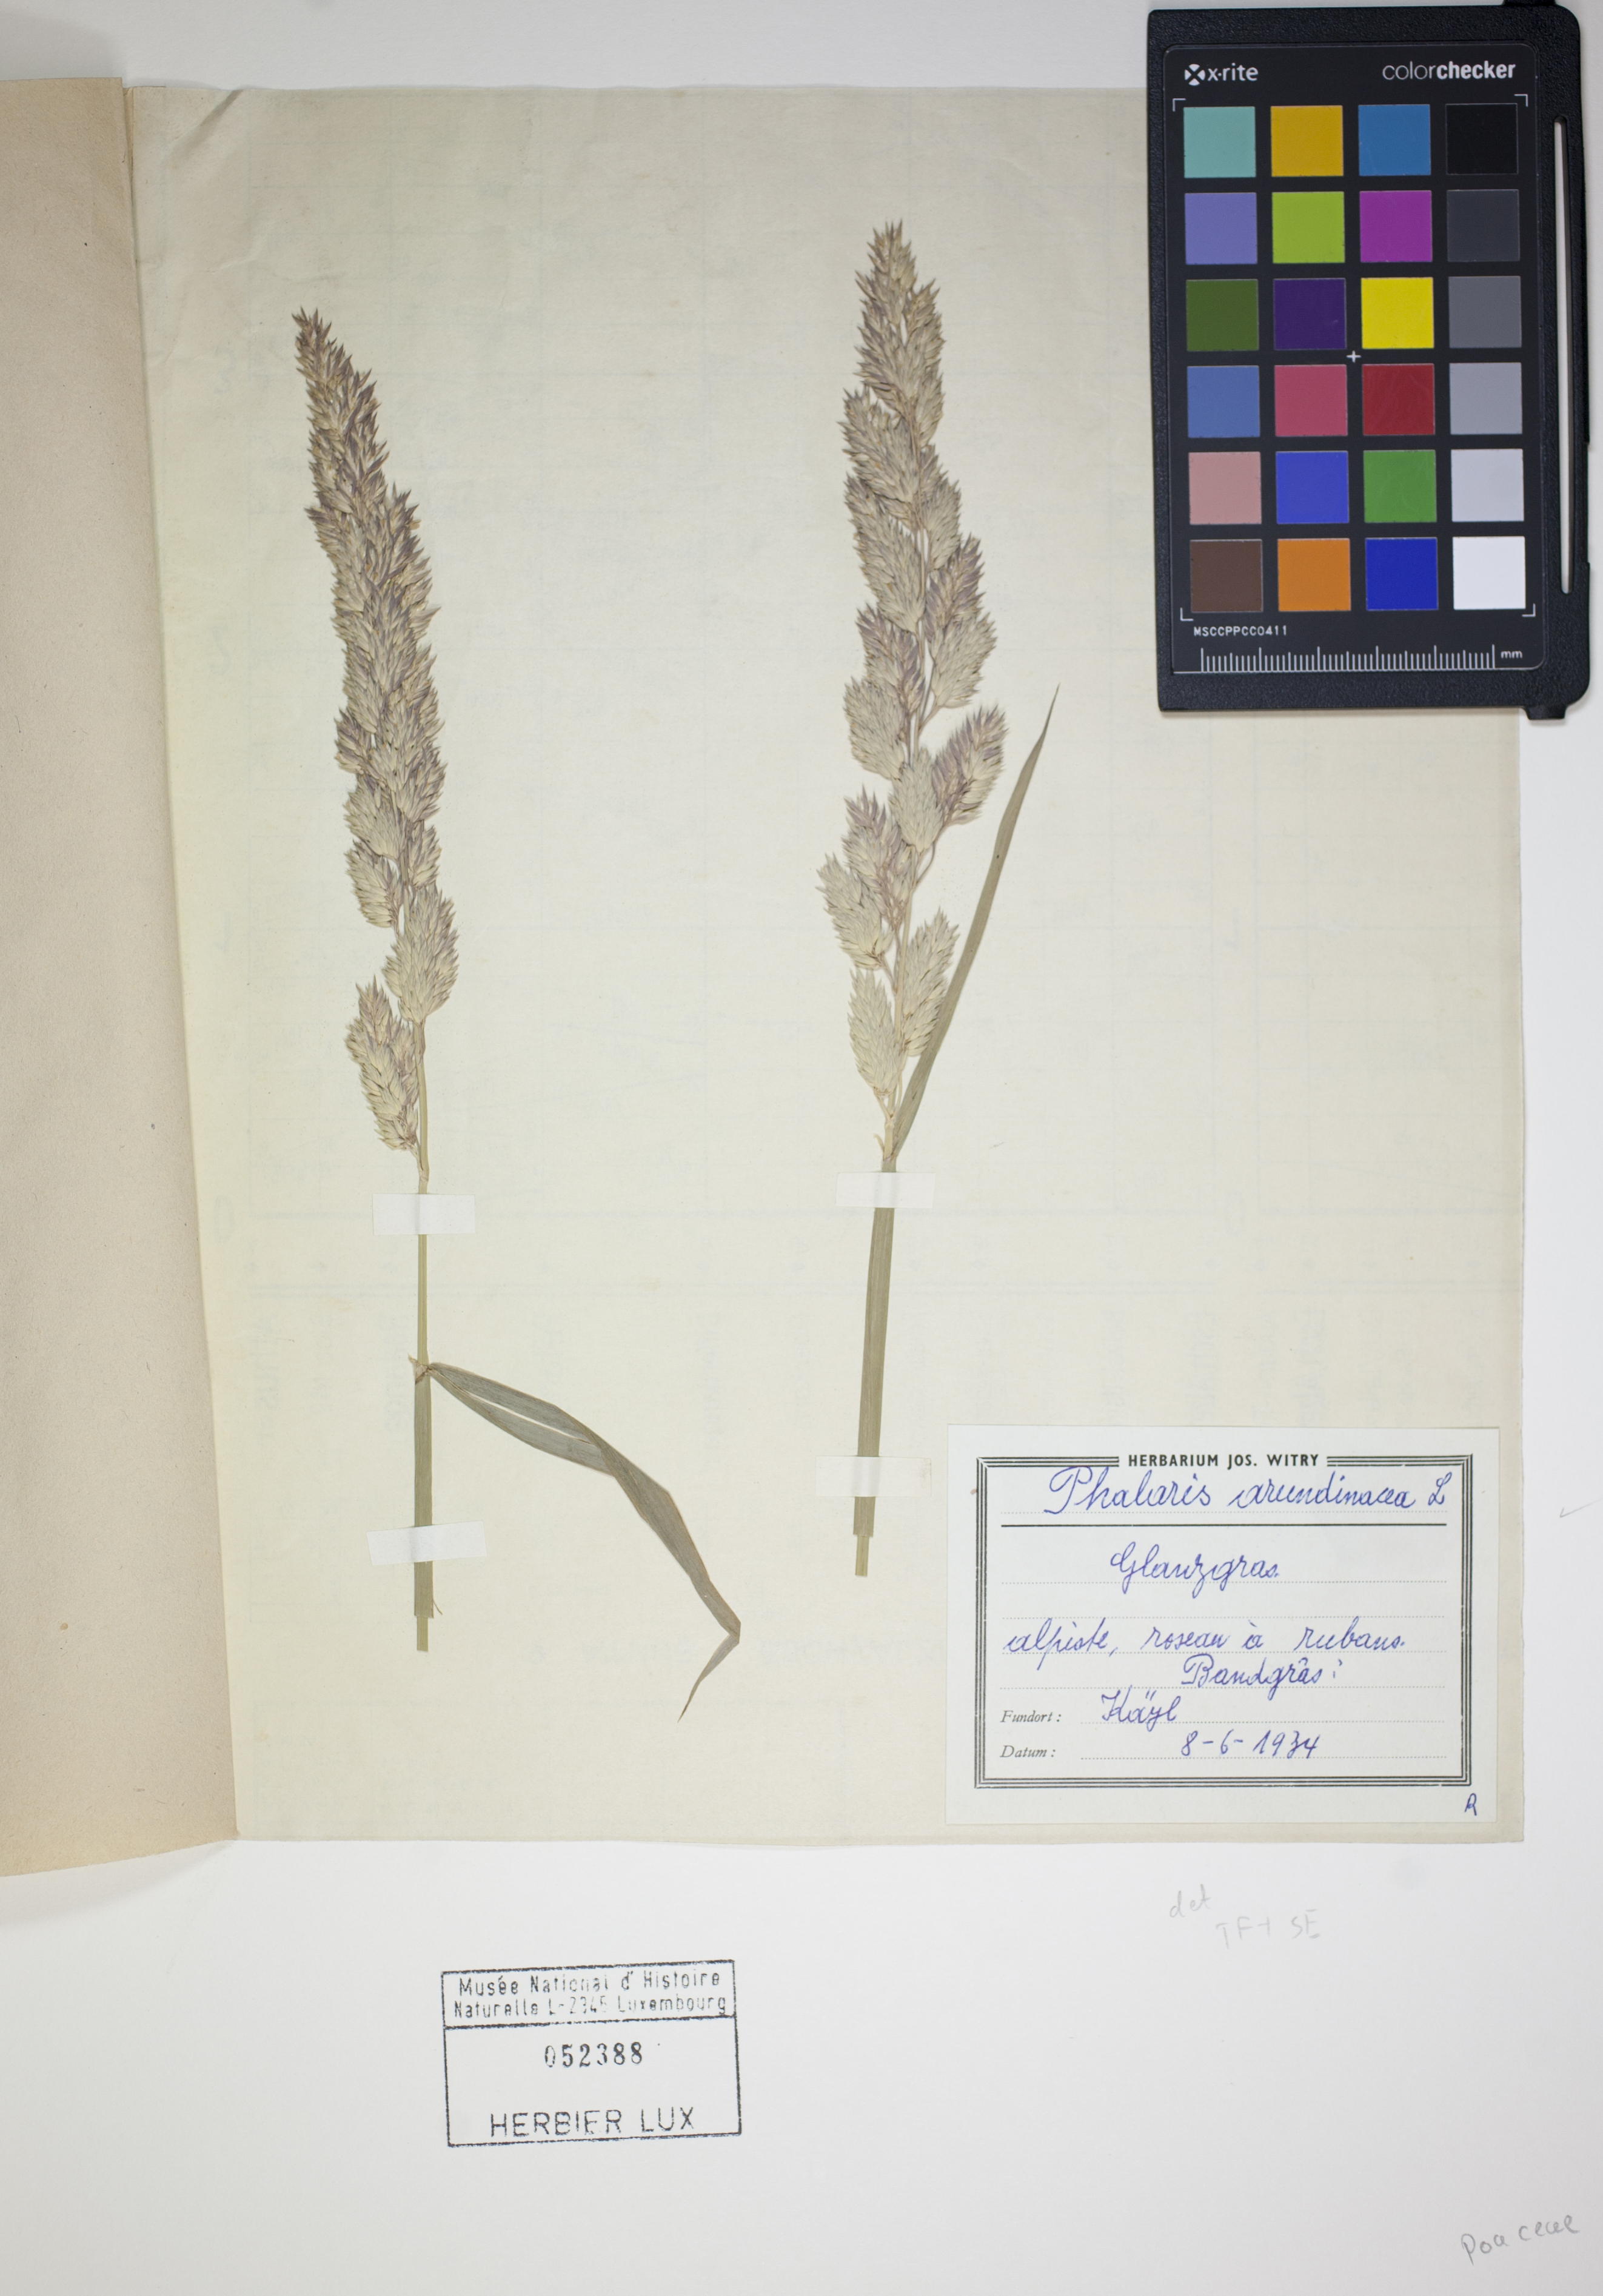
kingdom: Plantae
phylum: Tracheophyta
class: Liliopsida
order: Poales
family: Poaceae
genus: Phalaris
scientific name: Phalaris arundinacea
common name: Reed canary-grass
